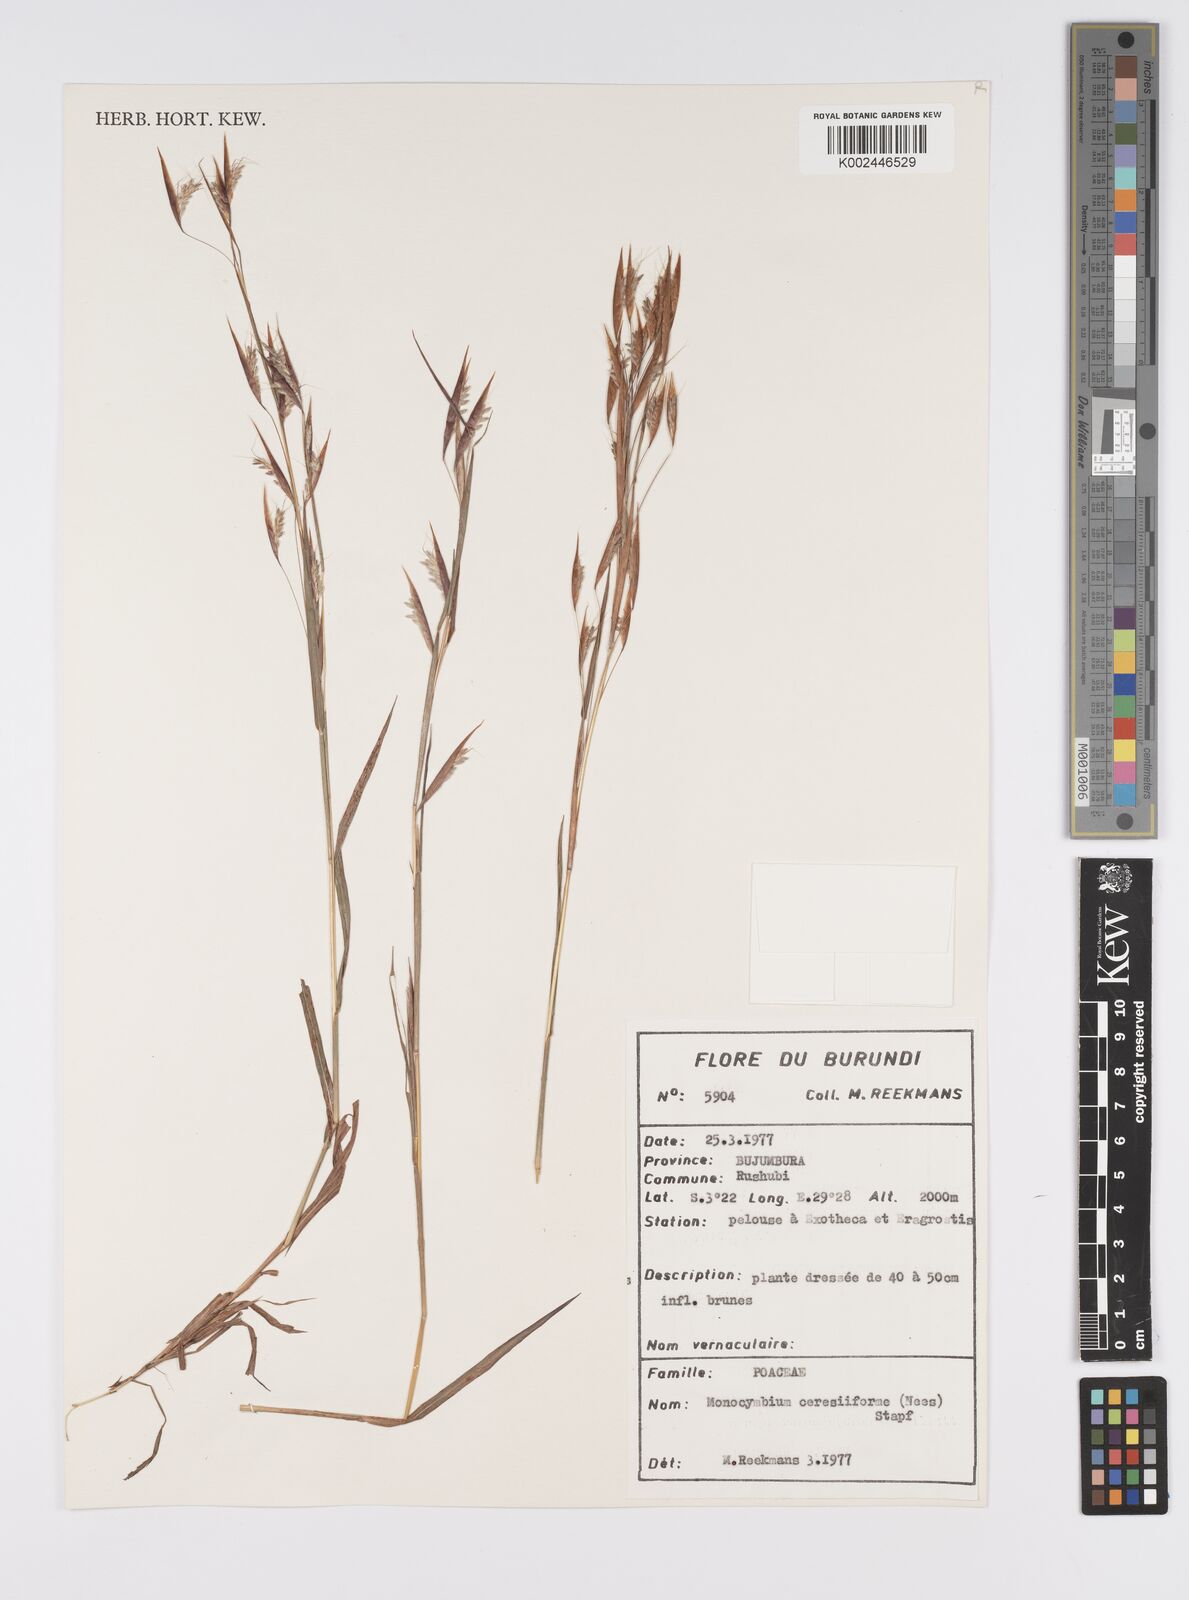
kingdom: Plantae
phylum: Tracheophyta
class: Liliopsida
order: Poales
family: Poaceae
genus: Monocymbium
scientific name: Monocymbium ceresiiforme
